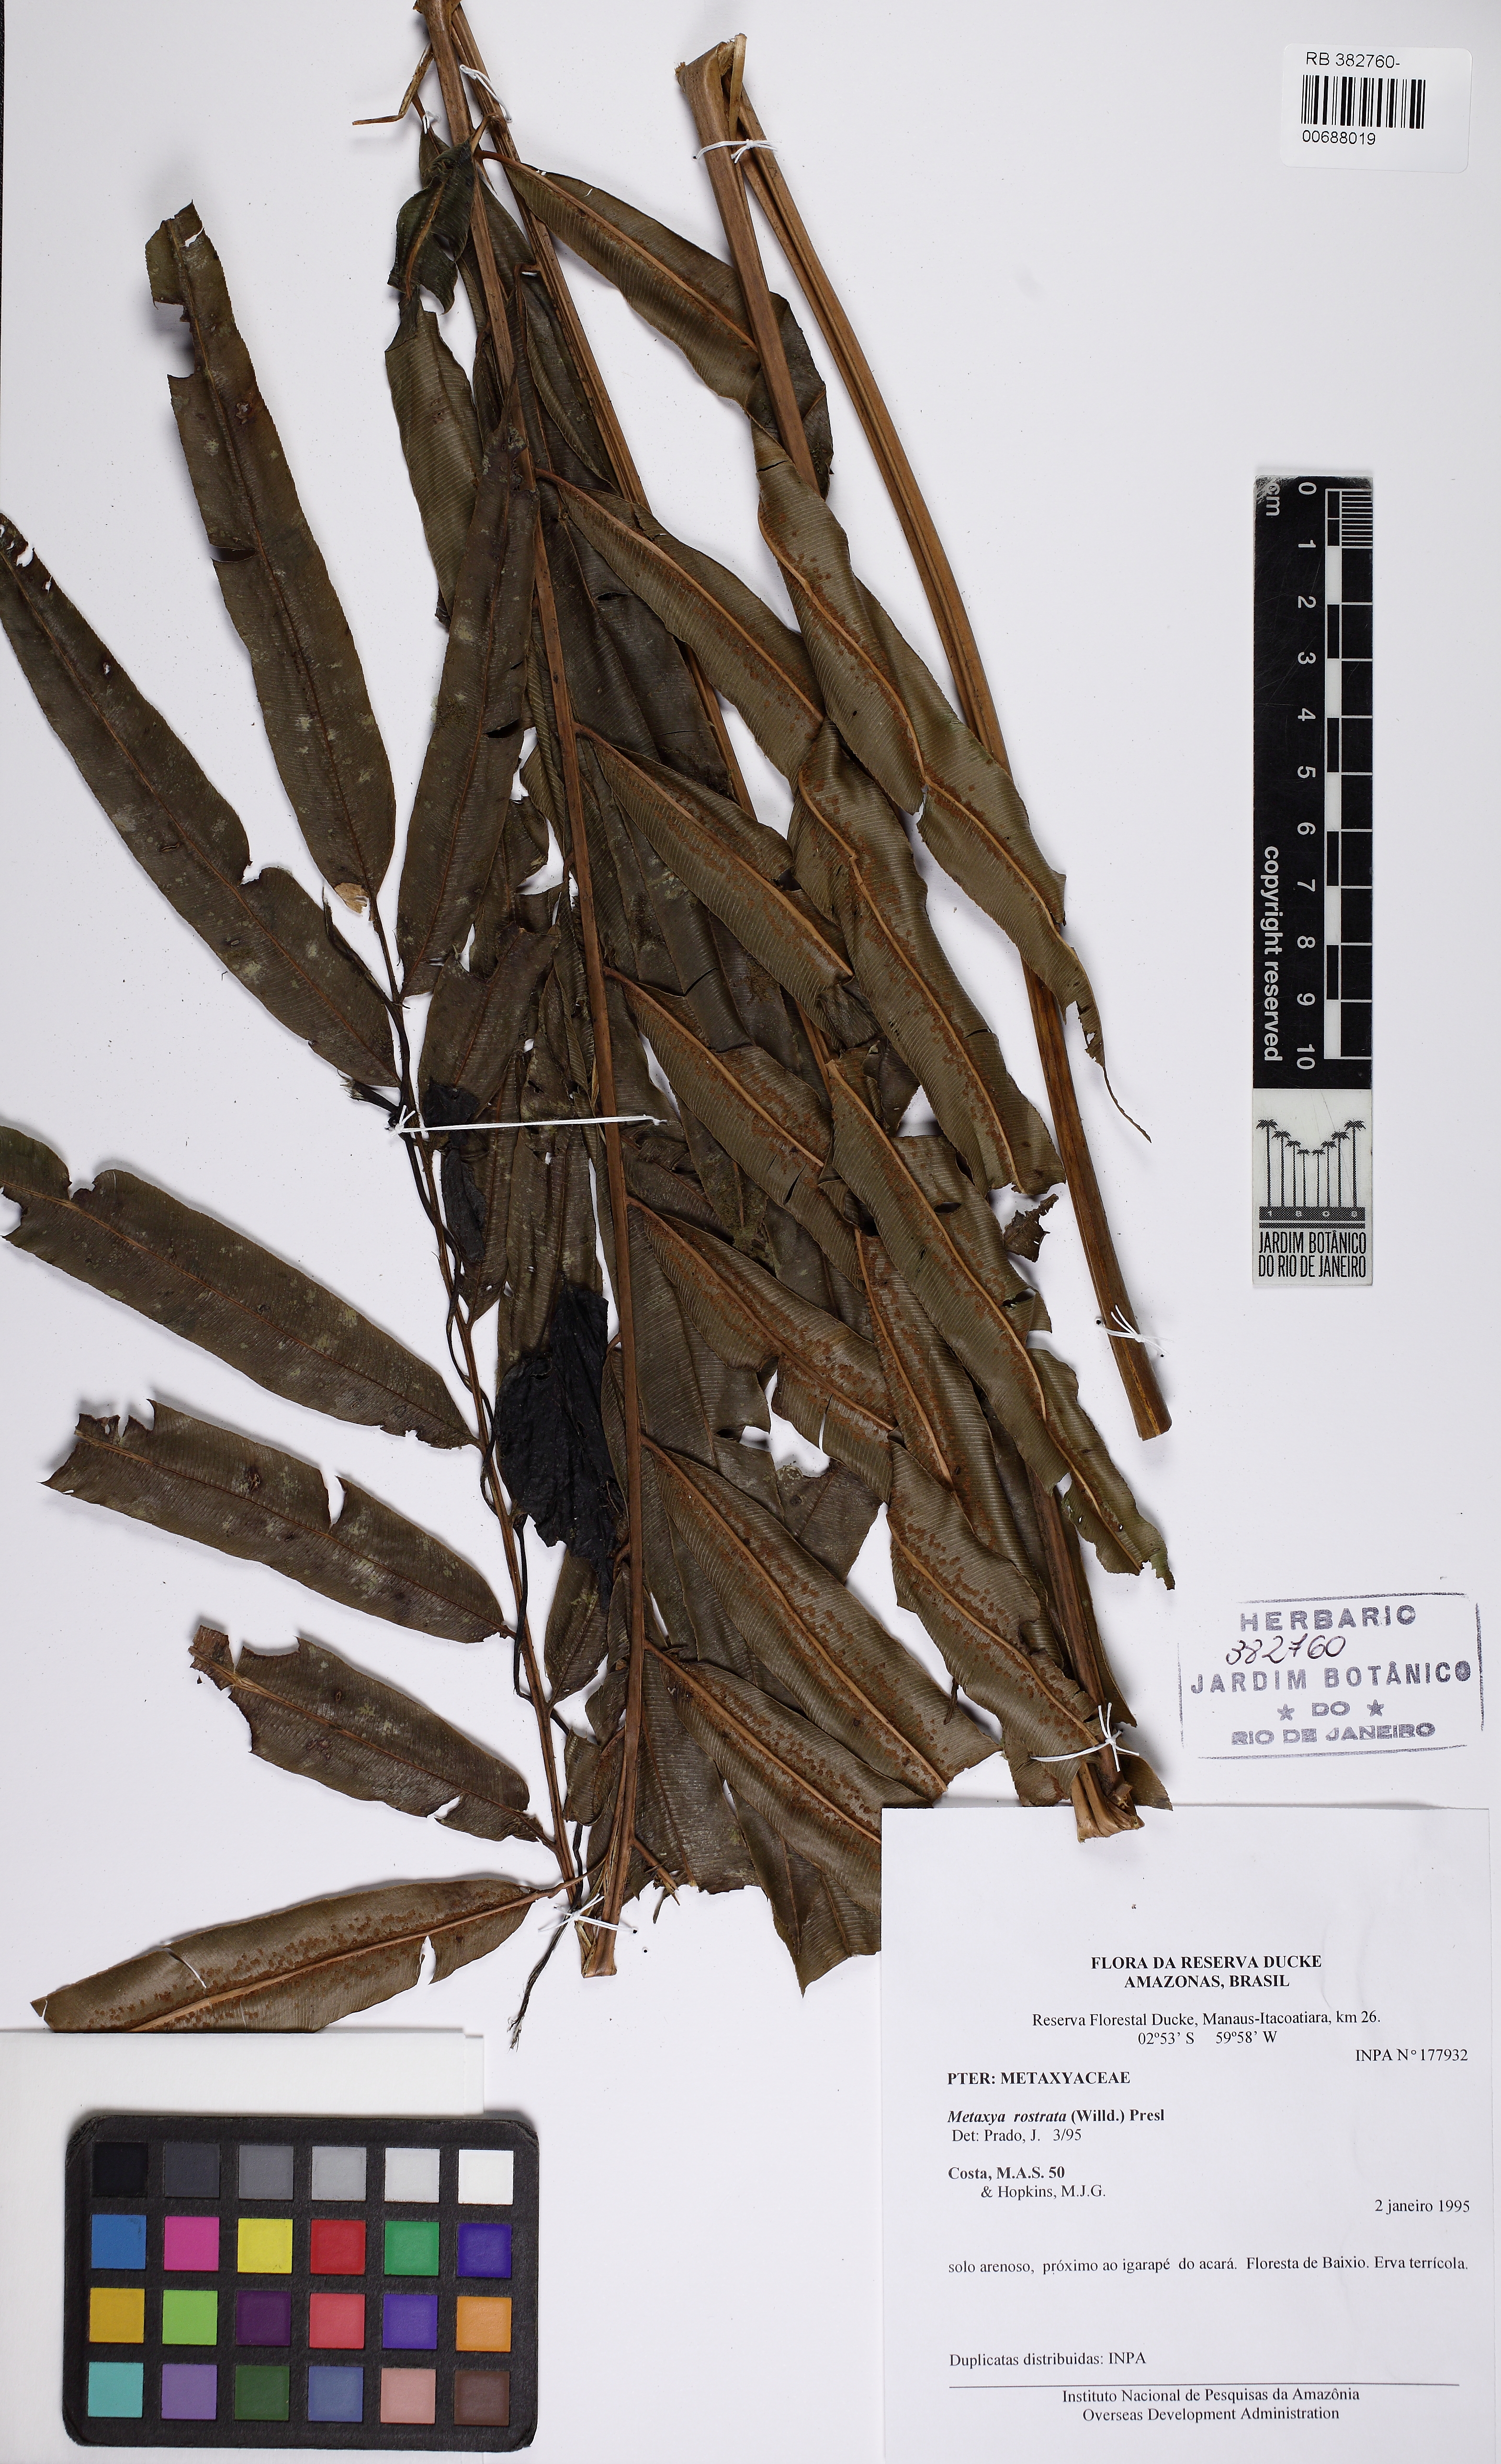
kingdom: Plantae
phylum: Tracheophyta
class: Polypodiopsida
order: Cyatheales
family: Metaxyaceae
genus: Metaxya
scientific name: Metaxya rostrata
